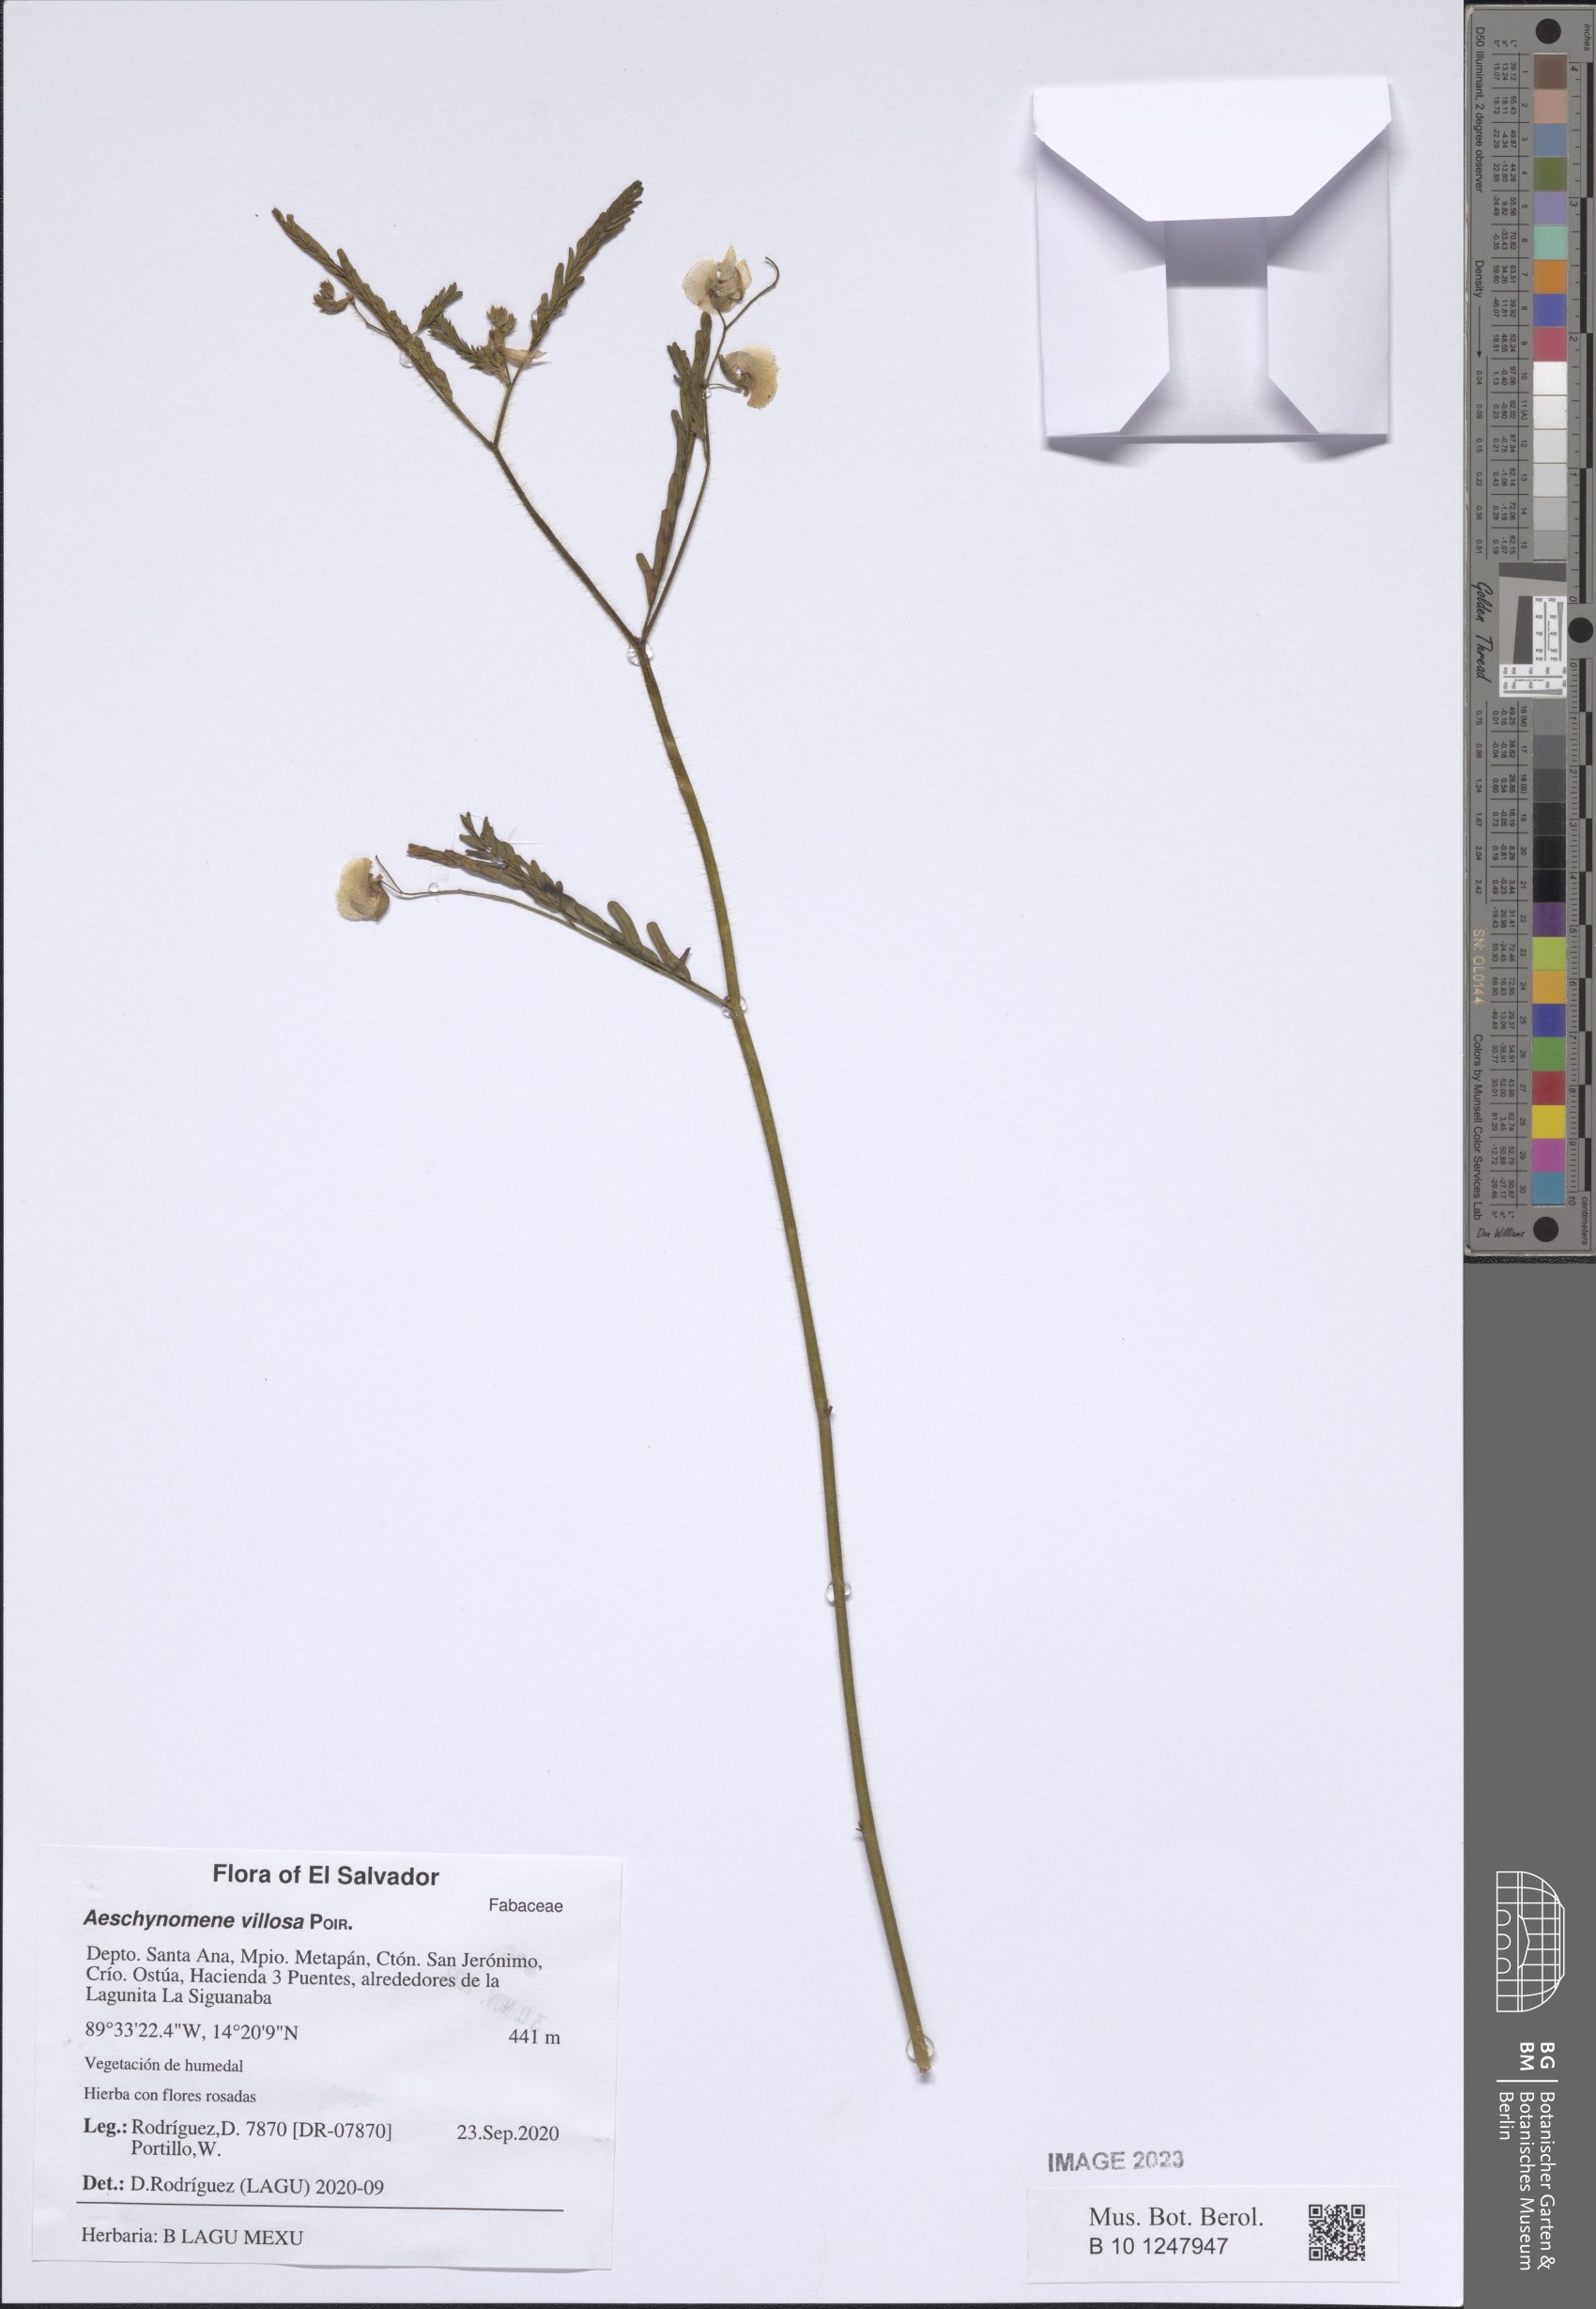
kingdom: Plantae
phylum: Tracheophyta
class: Magnoliopsida
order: Fabales
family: Fabaceae
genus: Aeschynomene
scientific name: Aeschynomene villosa
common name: Hairy-jointvetch
